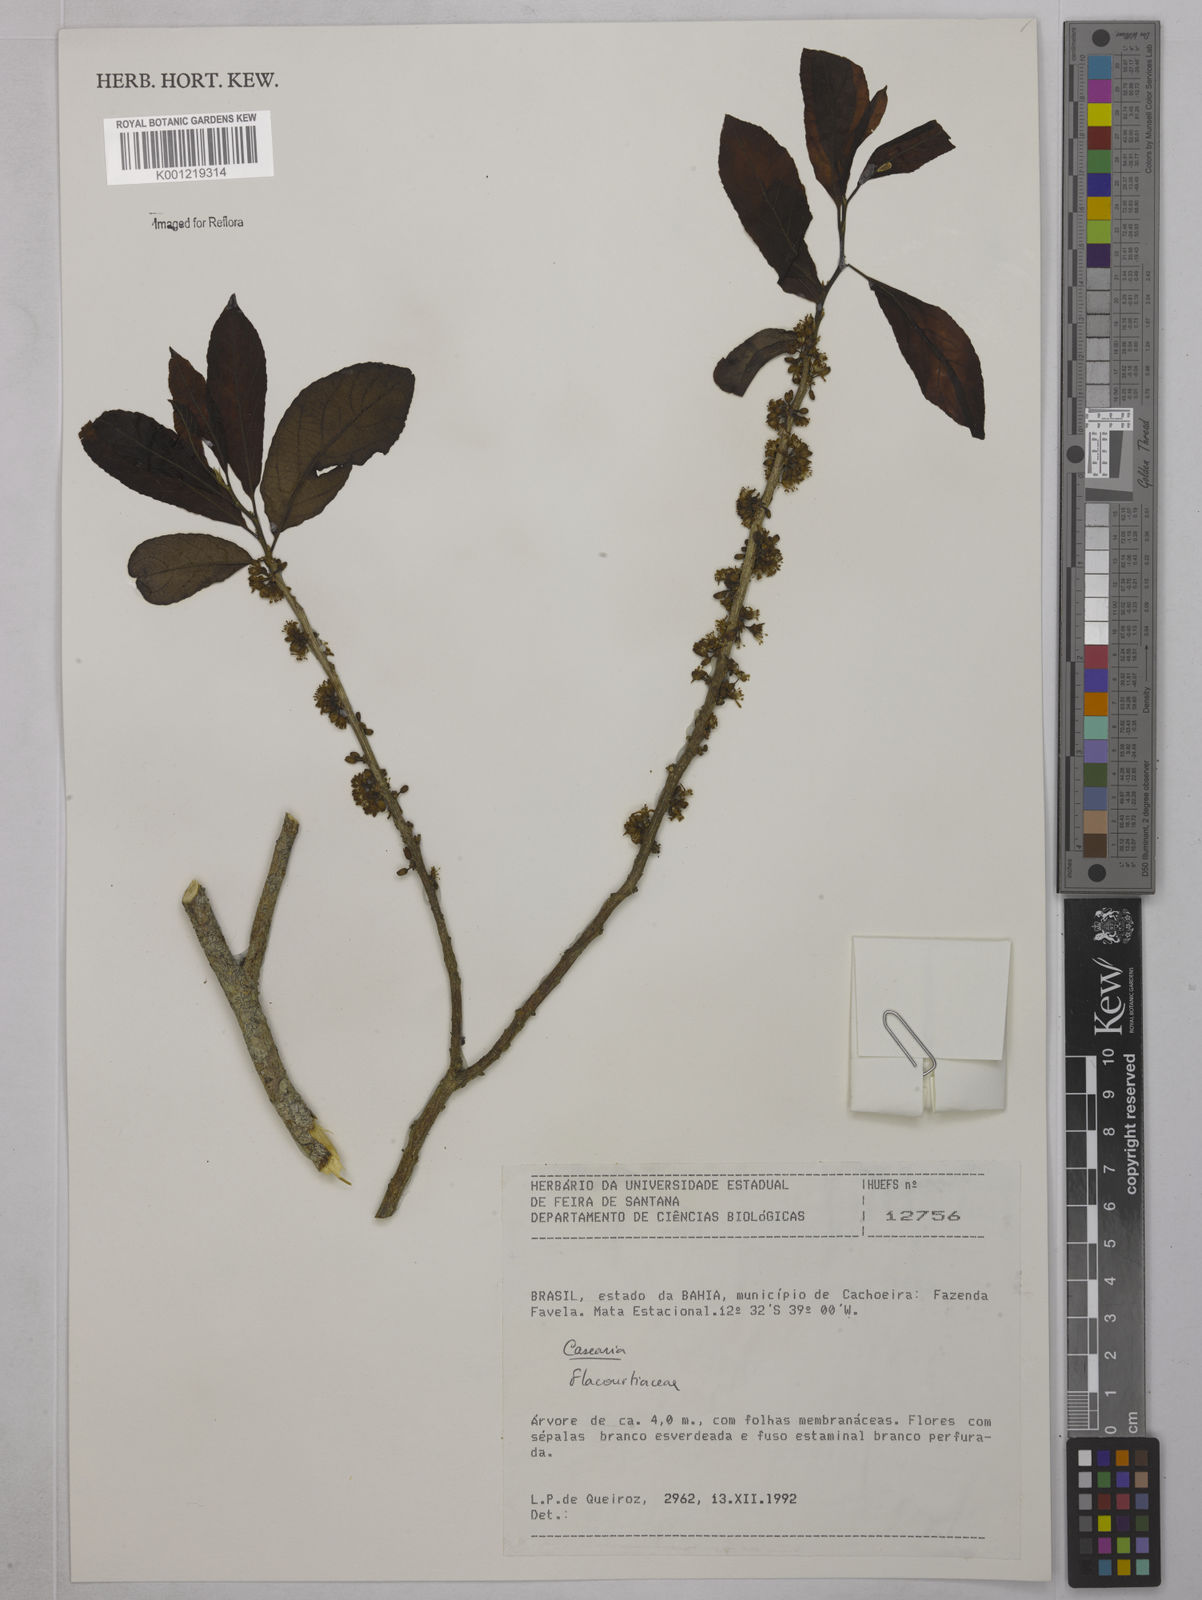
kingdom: Plantae
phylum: Tracheophyta
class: Magnoliopsida
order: Malpighiales
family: Salicaceae
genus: Casearia
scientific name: Casearia
